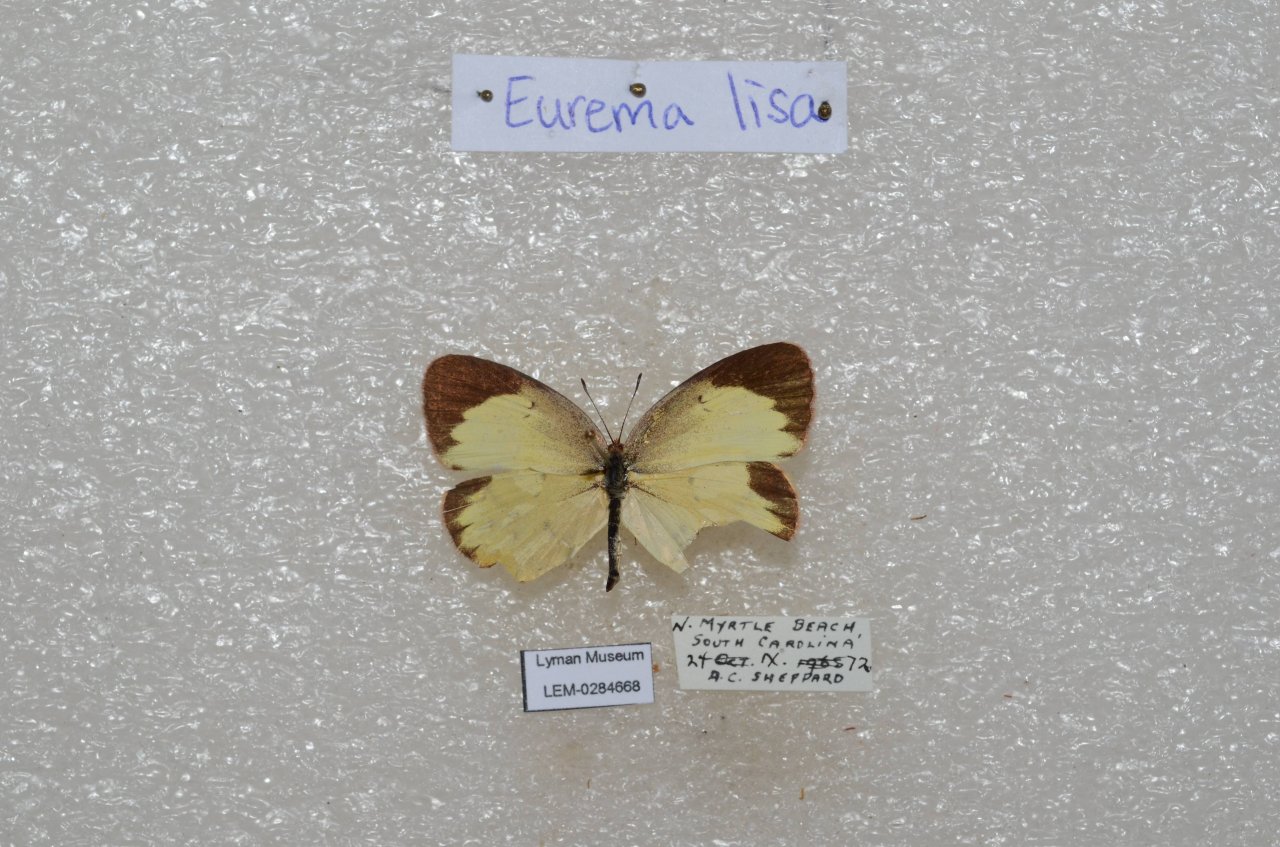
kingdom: Animalia
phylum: Arthropoda
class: Insecta
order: Lepidoptera
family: Pieridae
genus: Pyrisitia
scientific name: Pyrisitia lisa
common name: Little Yellow
